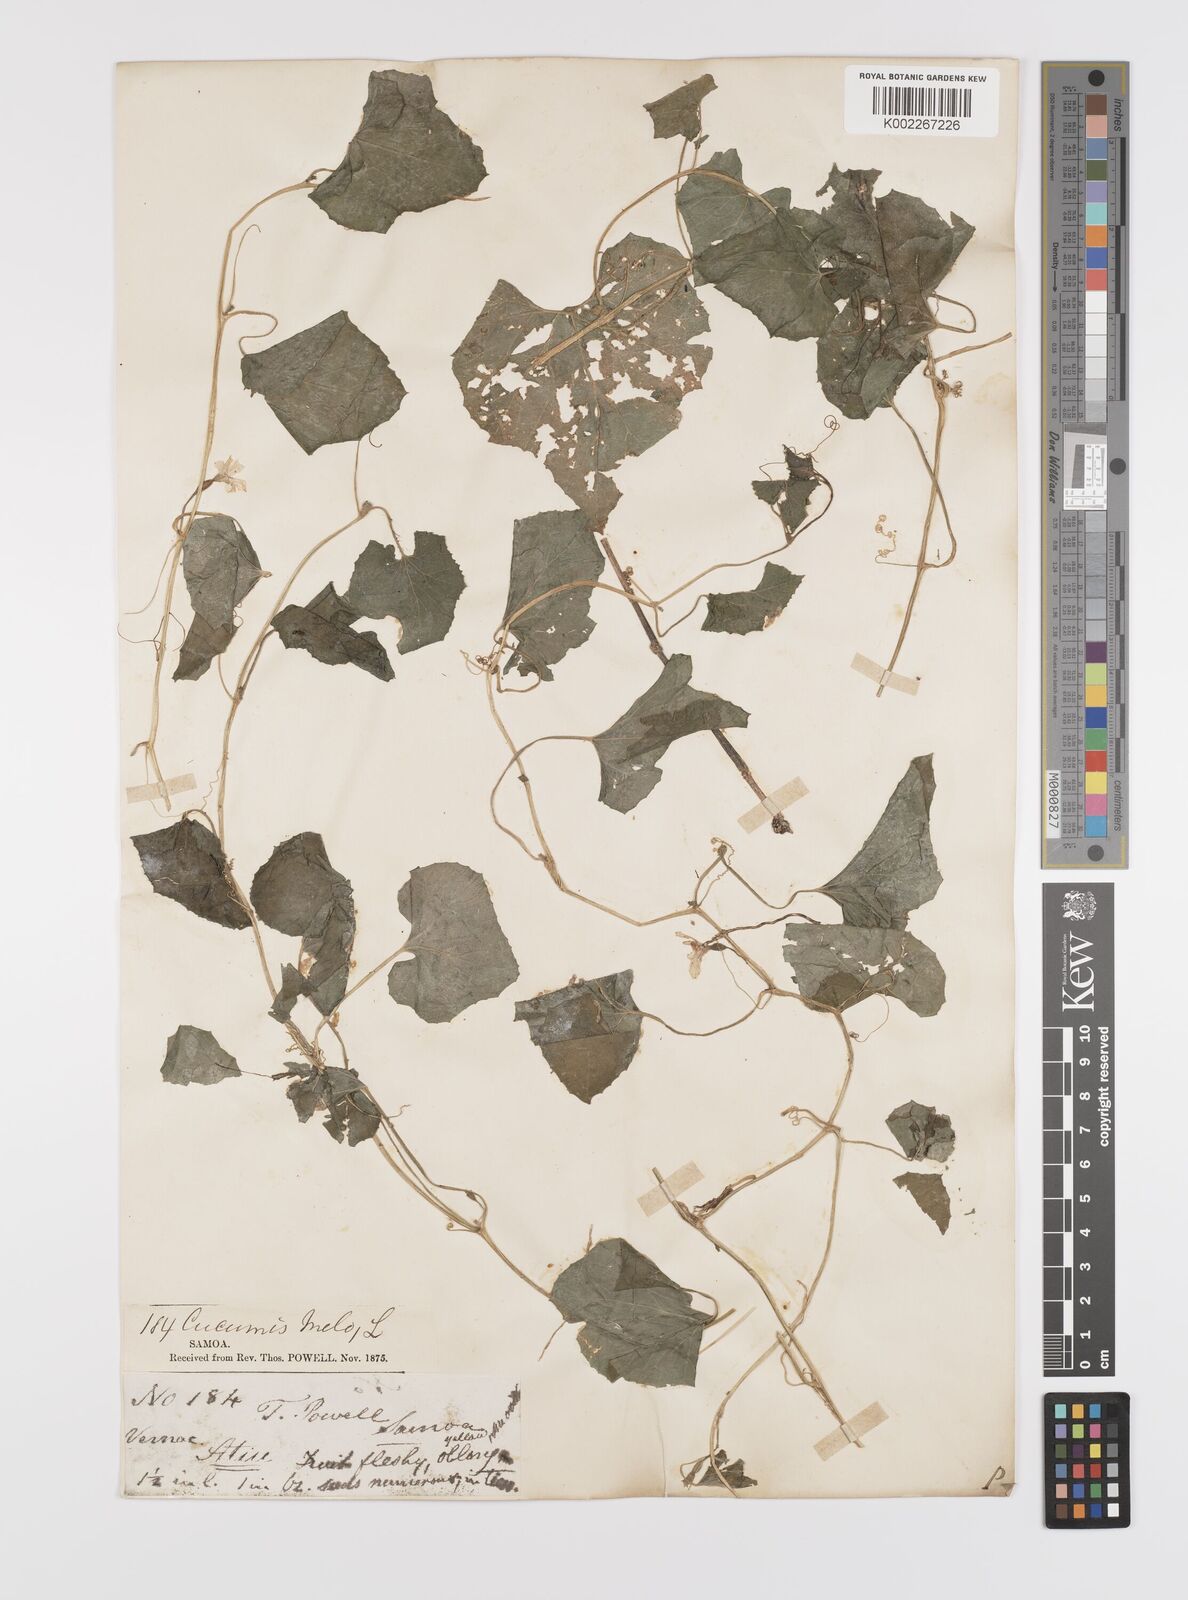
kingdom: Plantae
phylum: Tracheophyta
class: Magnoliopsida
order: Cucurbitales
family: Cucurbitaceae
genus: Cucumis
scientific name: Cucumis melo
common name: Melon
